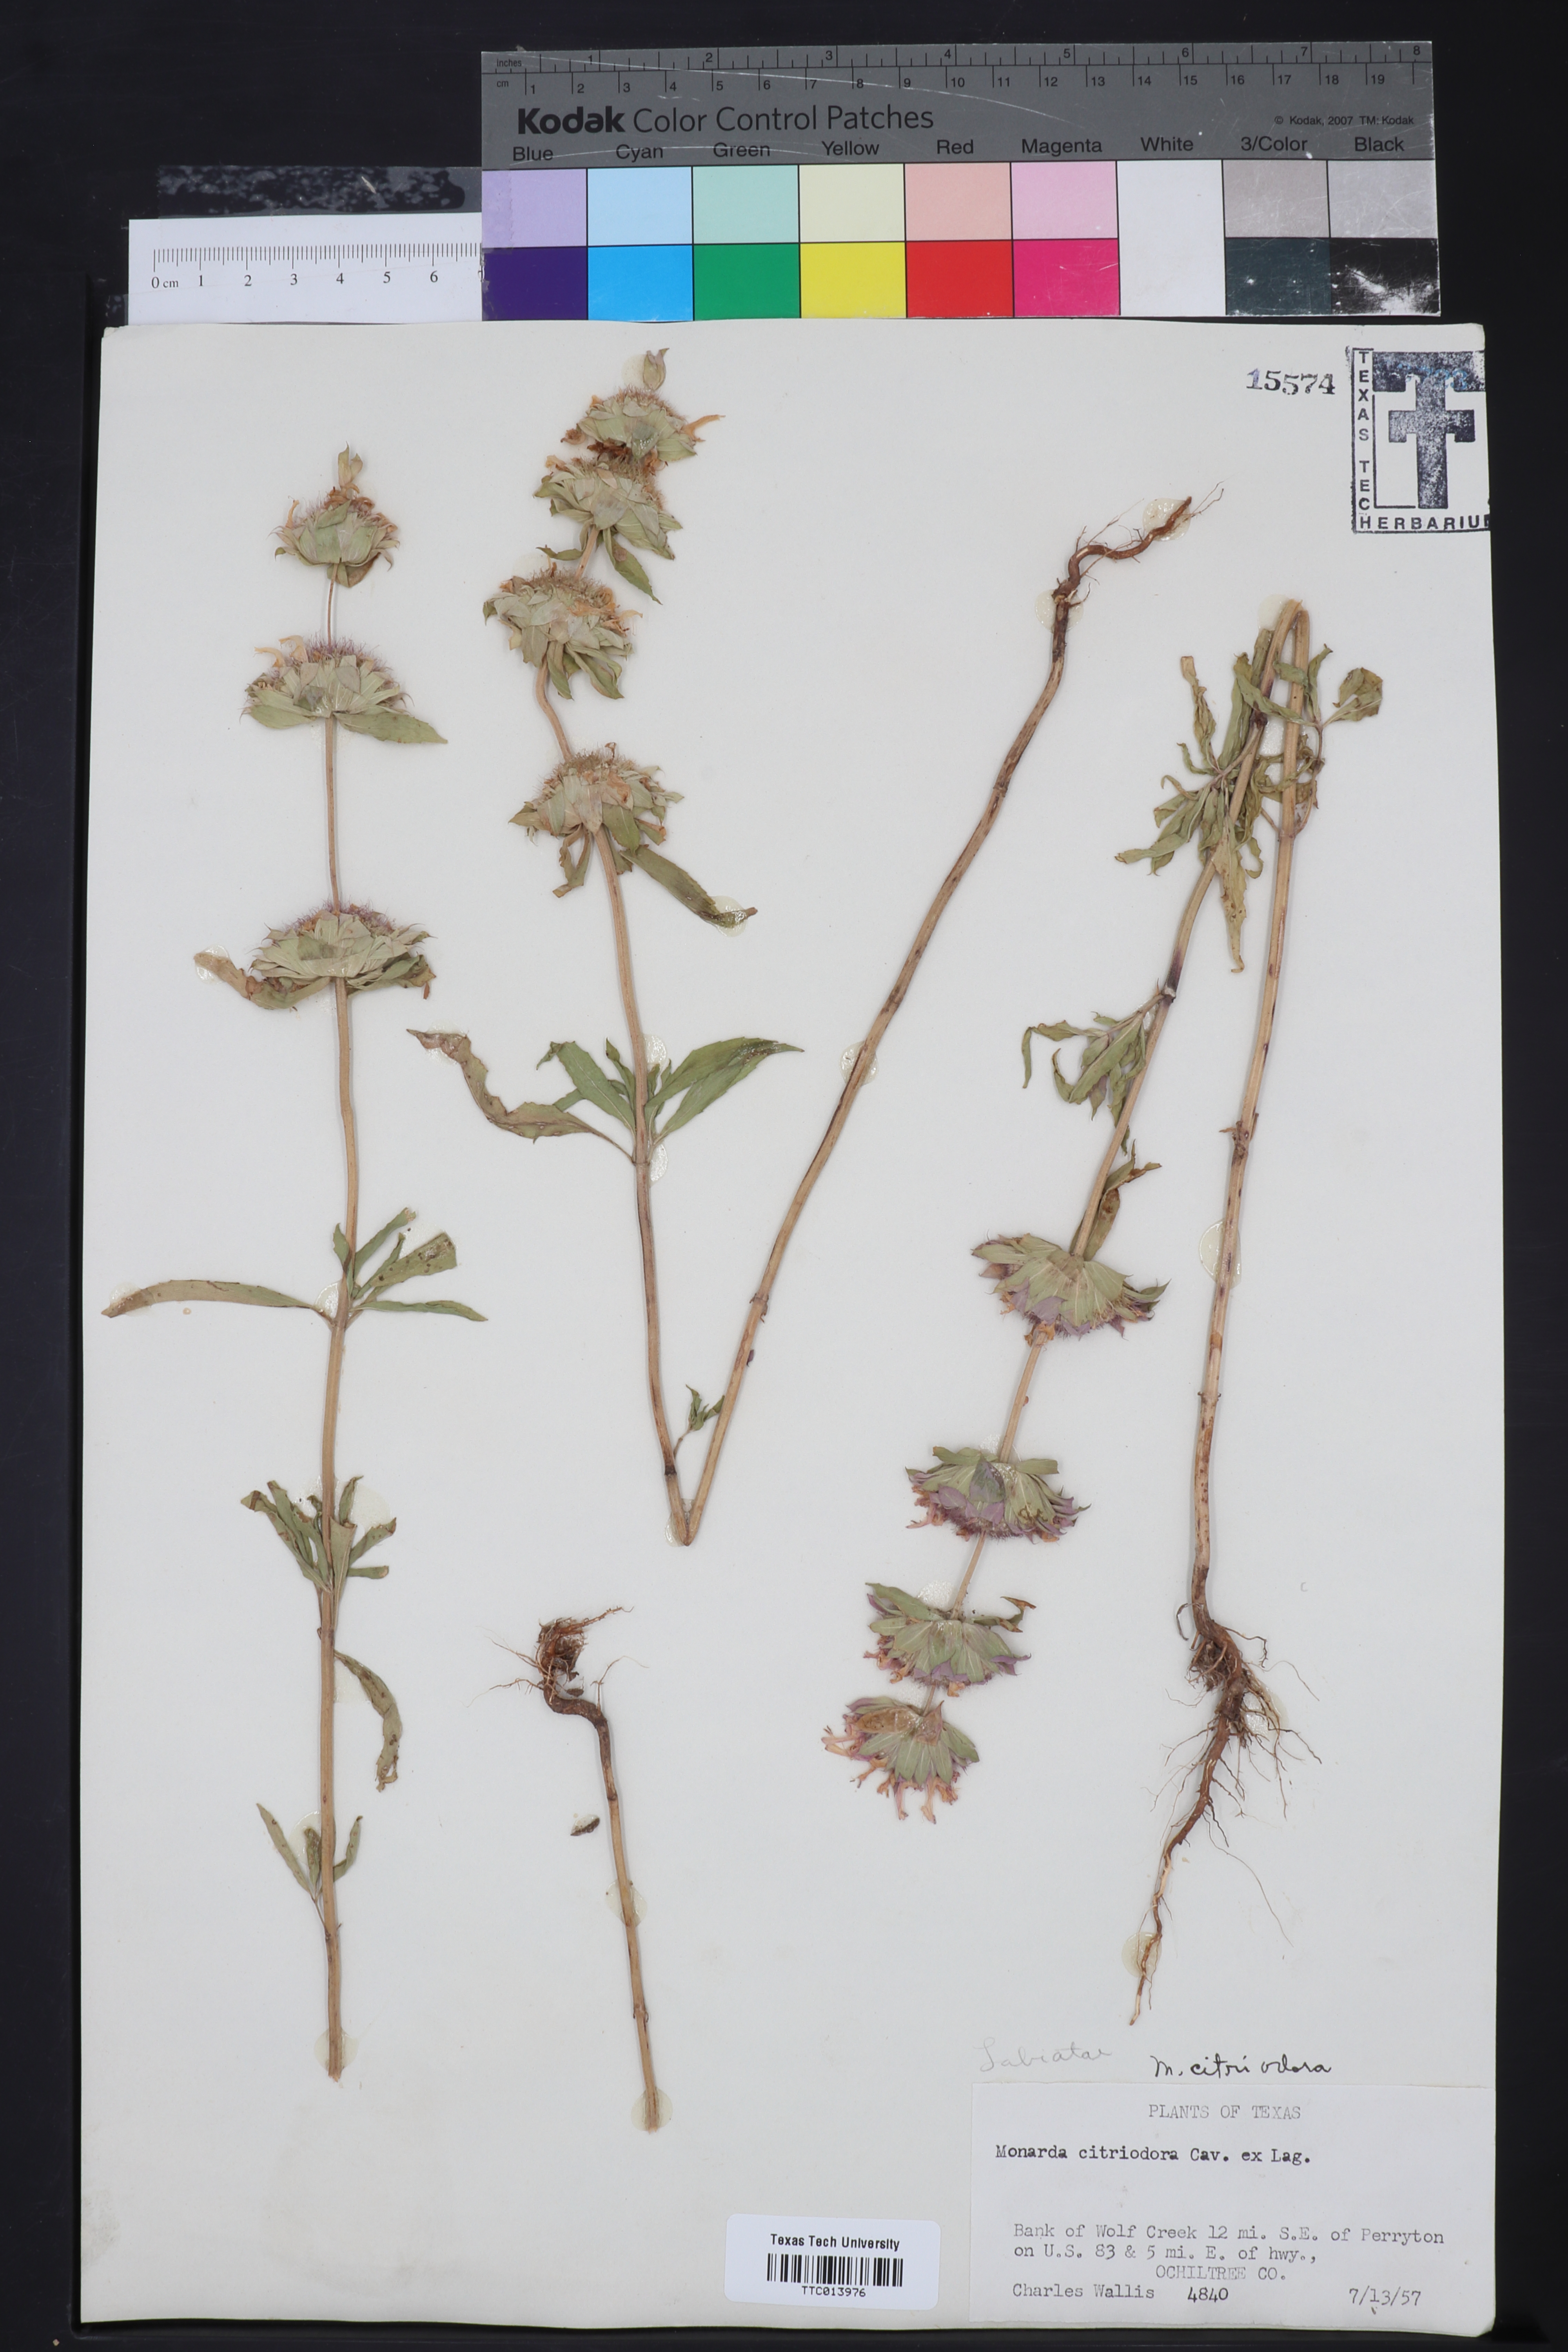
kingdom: Plantae
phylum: Tracheophyta
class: Magnoliopsida
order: Lamiales
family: Lamiaceae
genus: Monarda
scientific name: Monarda citriodora
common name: Lemon beebalm
